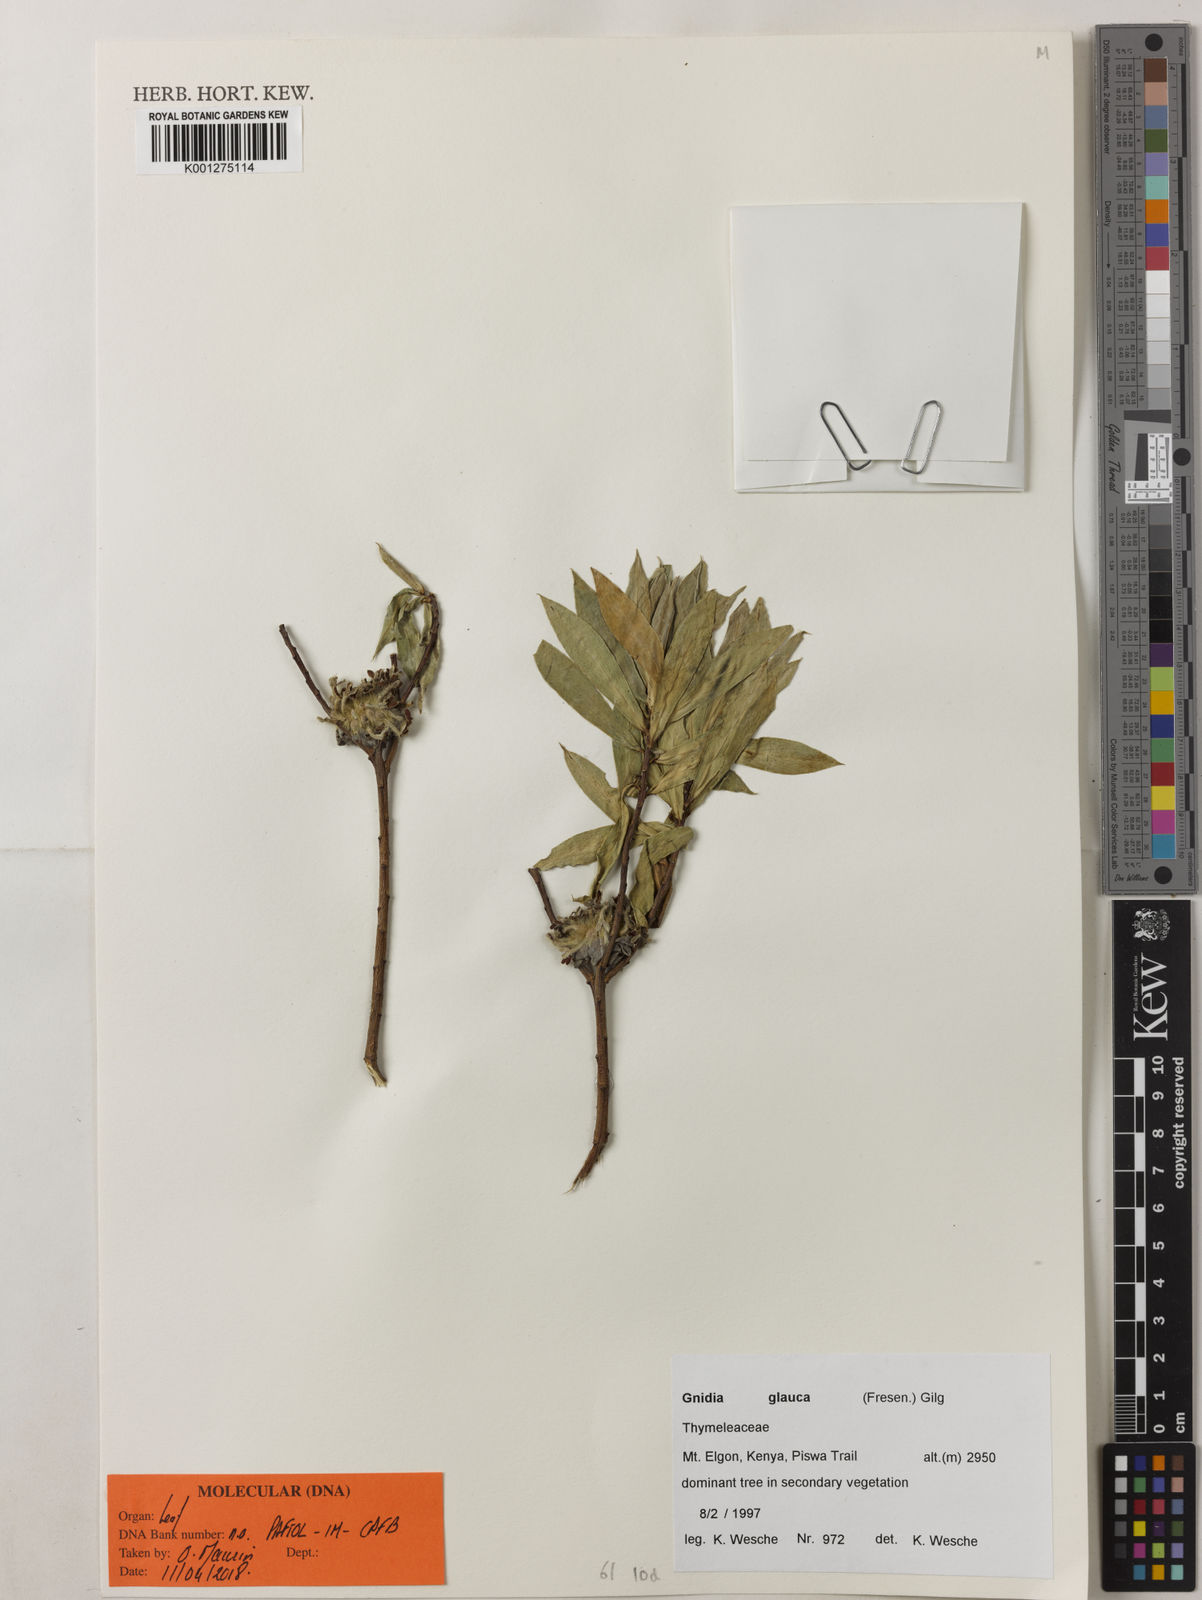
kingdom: Plantae
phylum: Tracheophyta
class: Magnoliopsida
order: Malvales
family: Thymelaeaceae
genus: Gnidia
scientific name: Gnidia glauca
